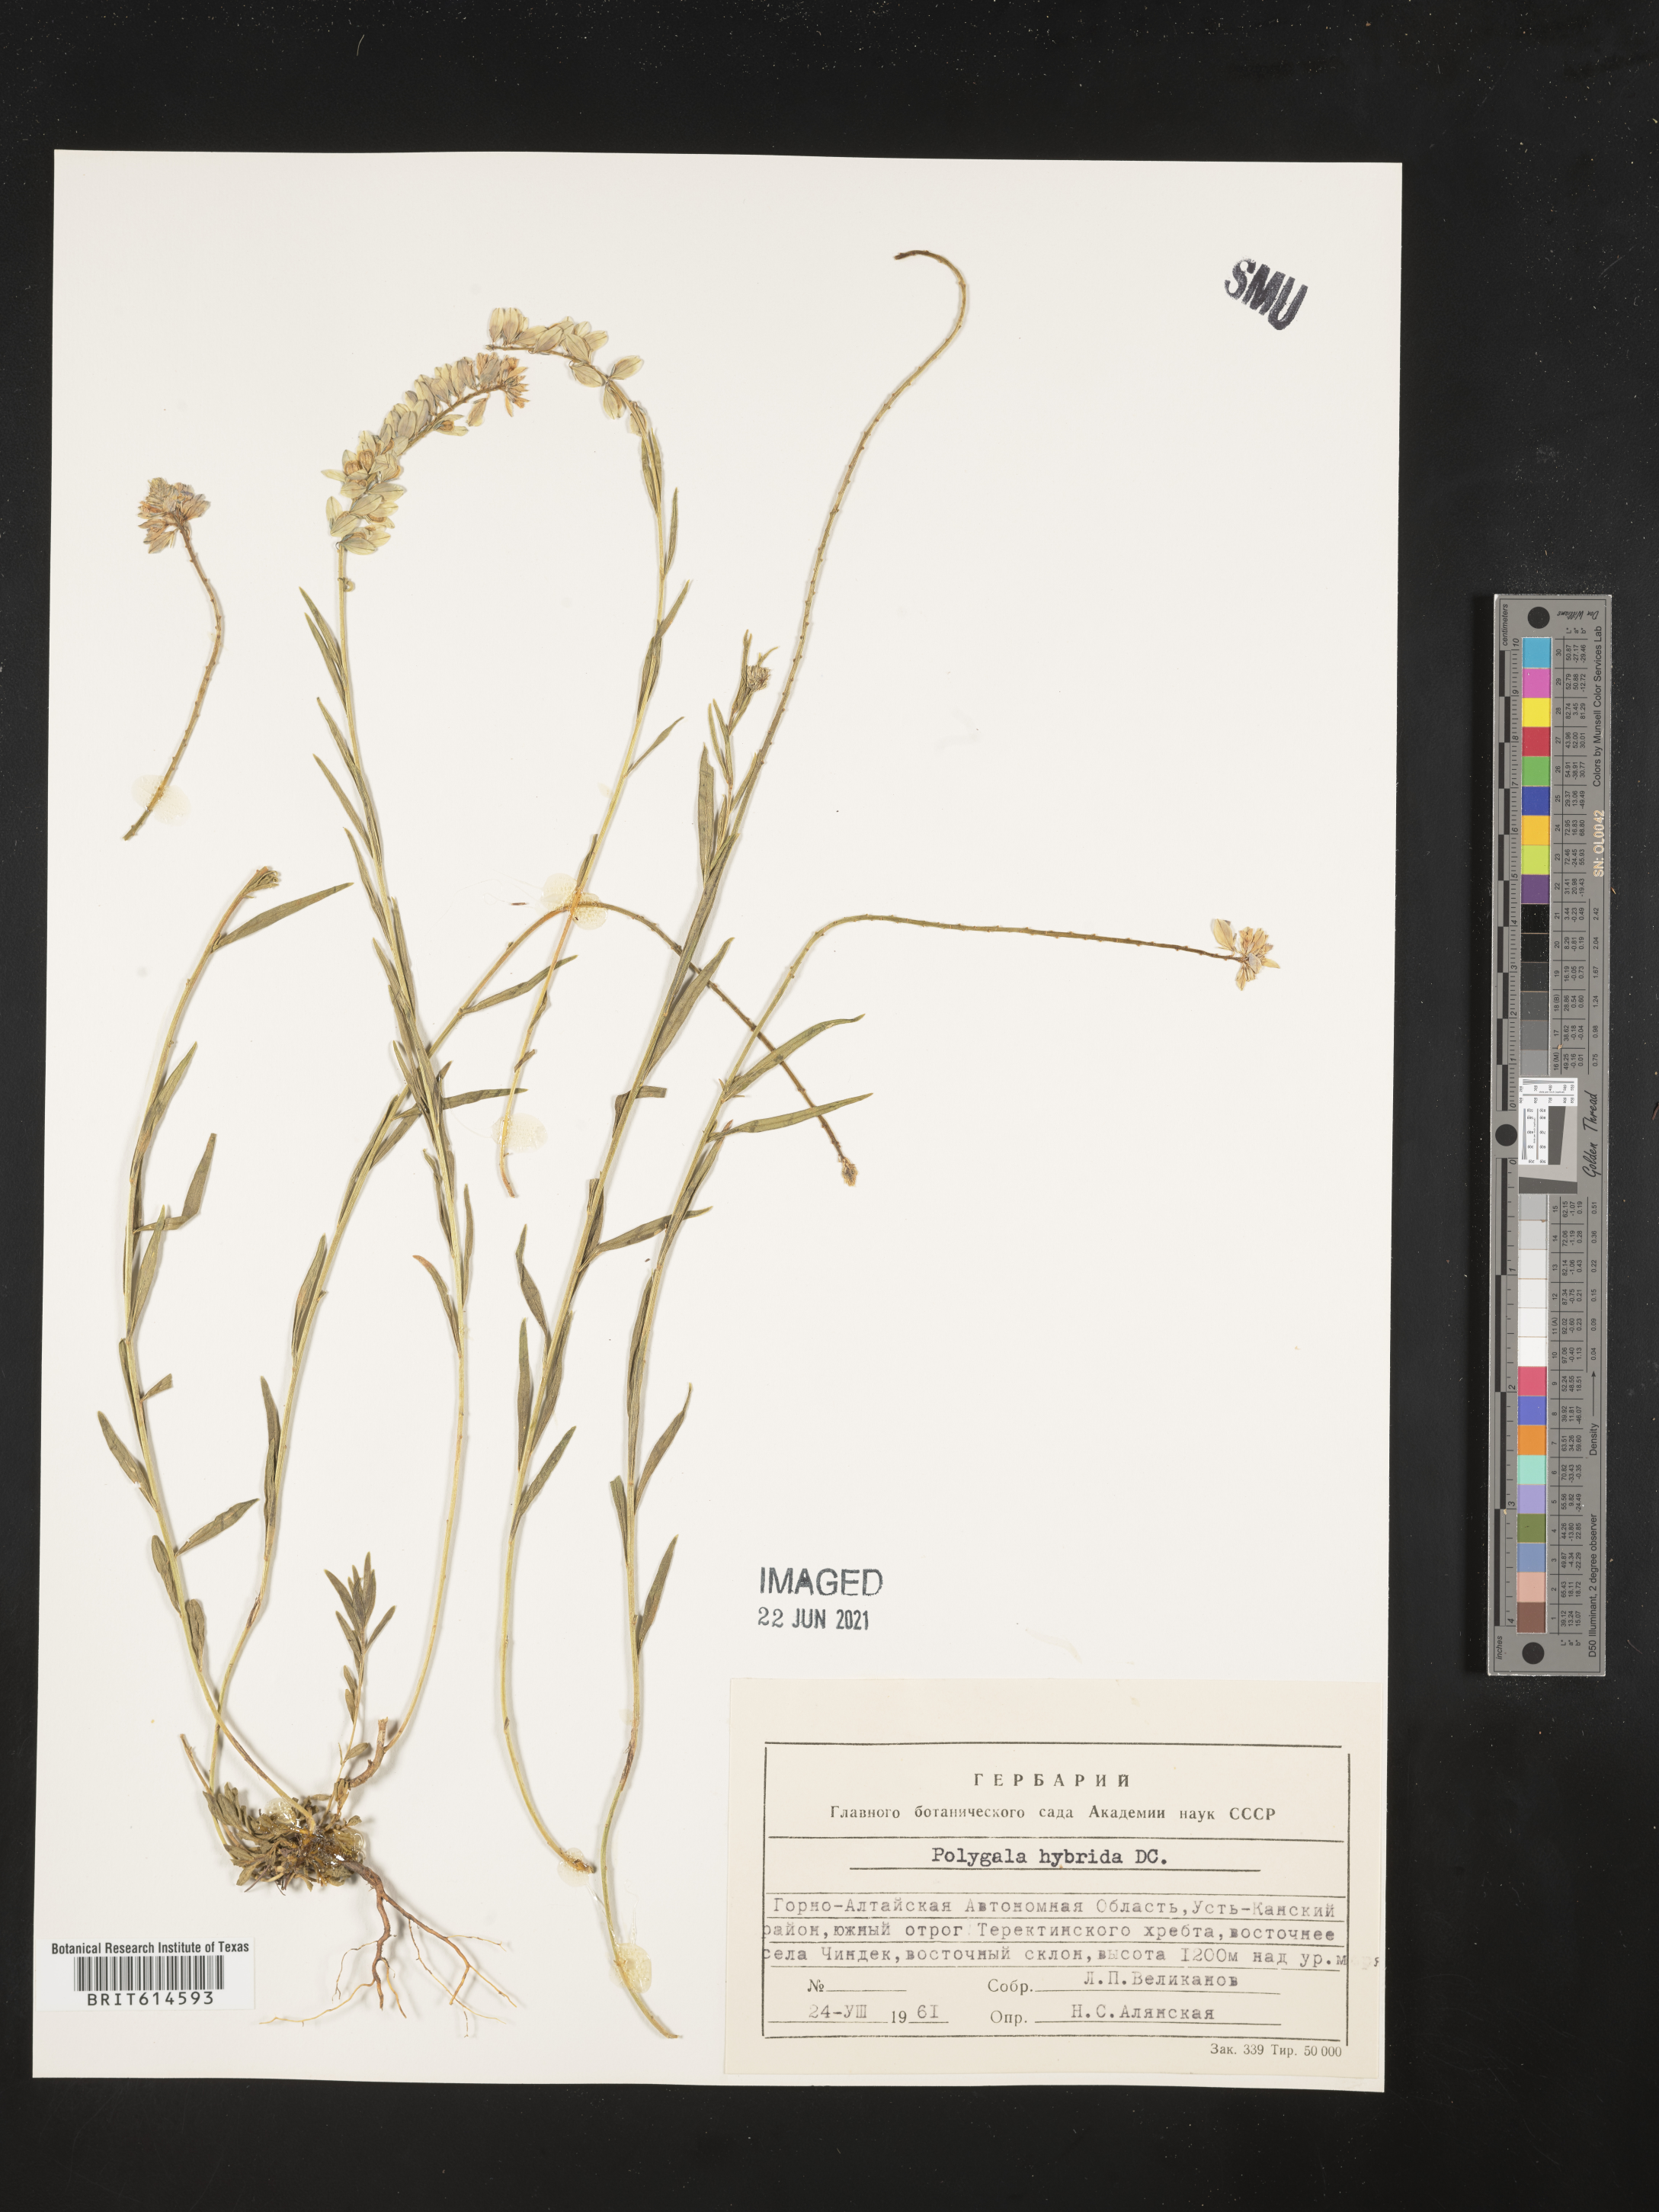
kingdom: Plantae
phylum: Tracheophyta
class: Magnoliopsida
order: Fabales
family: Polygalaceae
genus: Polygala
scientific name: Polygala comosa
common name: Tufted milkwort
